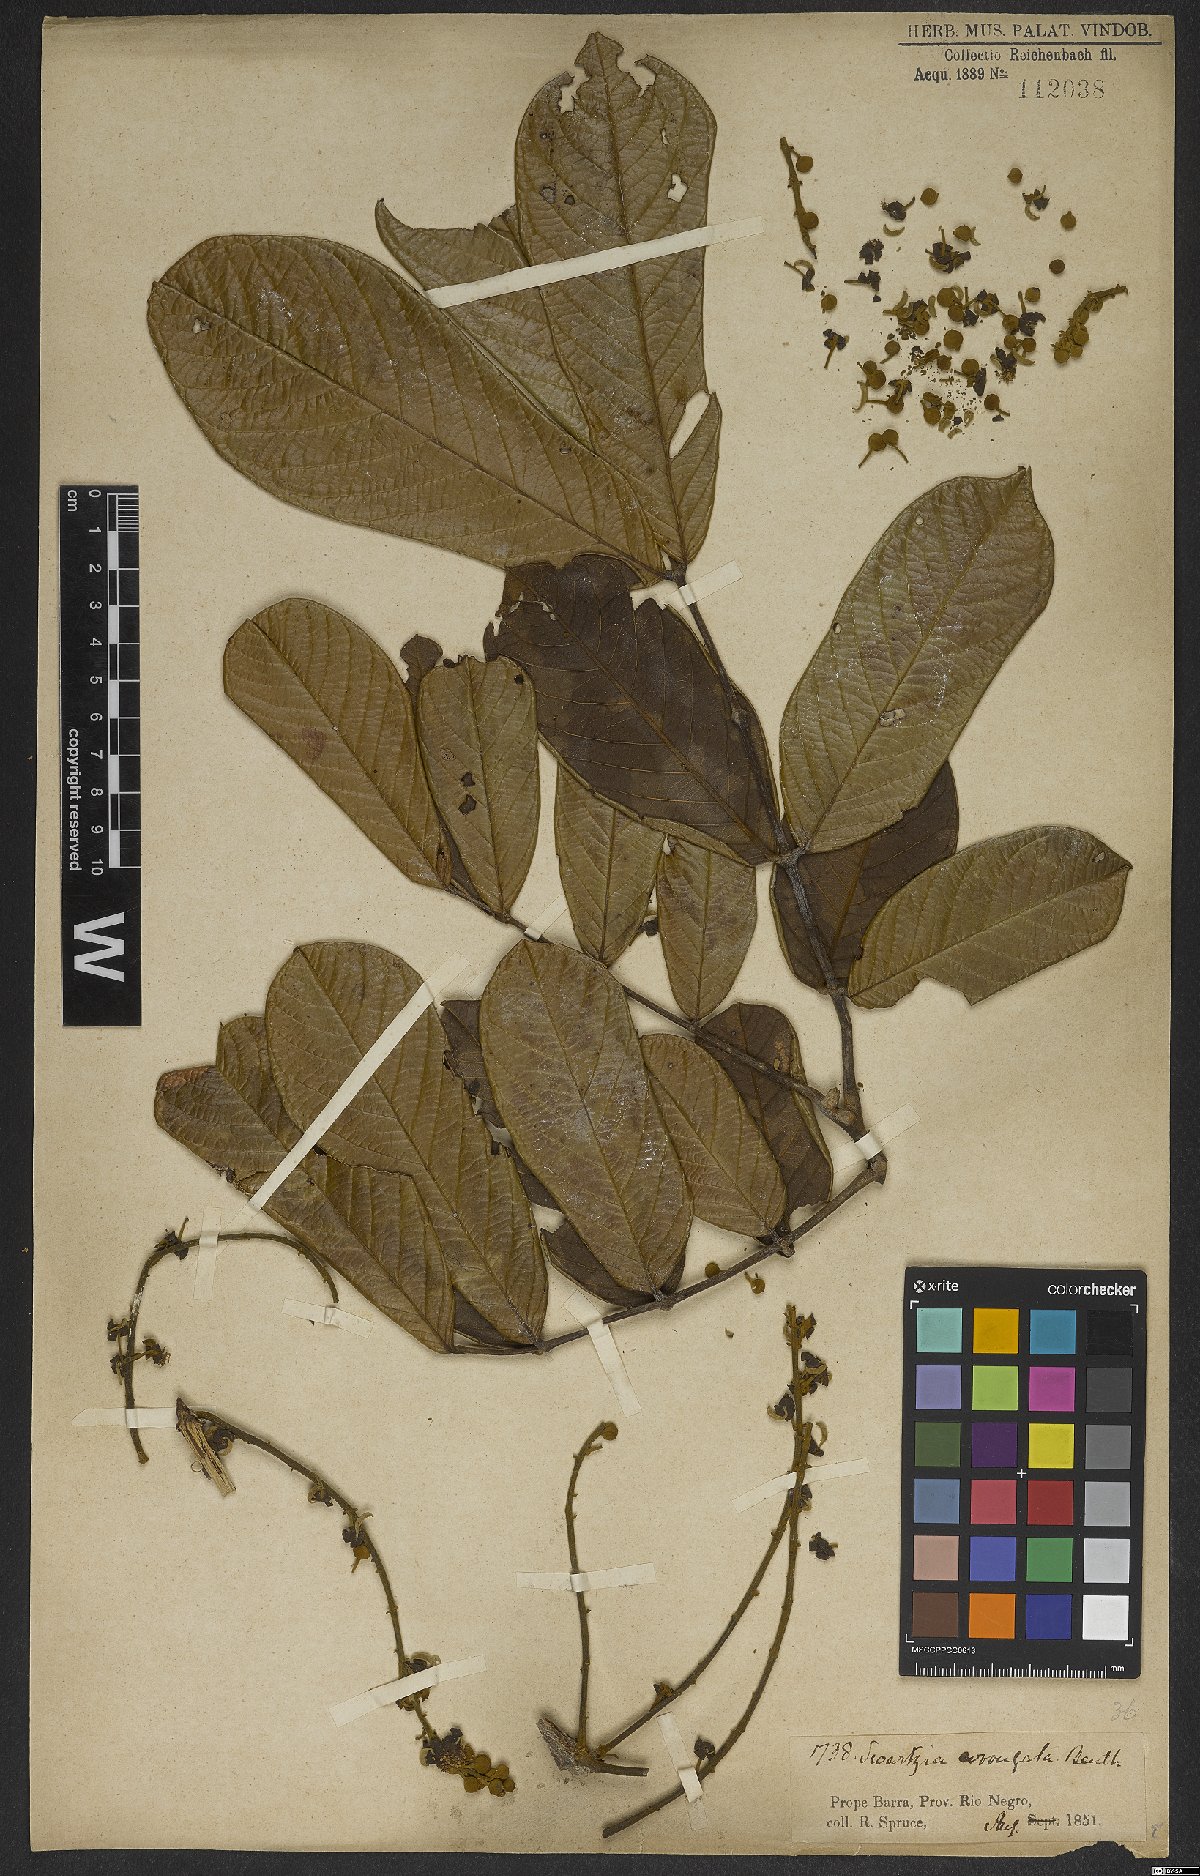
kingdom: Plantae
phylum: Tracheophyta
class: Magnoliopsida
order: Fabales
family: Fabaceae
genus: Swartzia
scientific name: Swartzia corrugata
